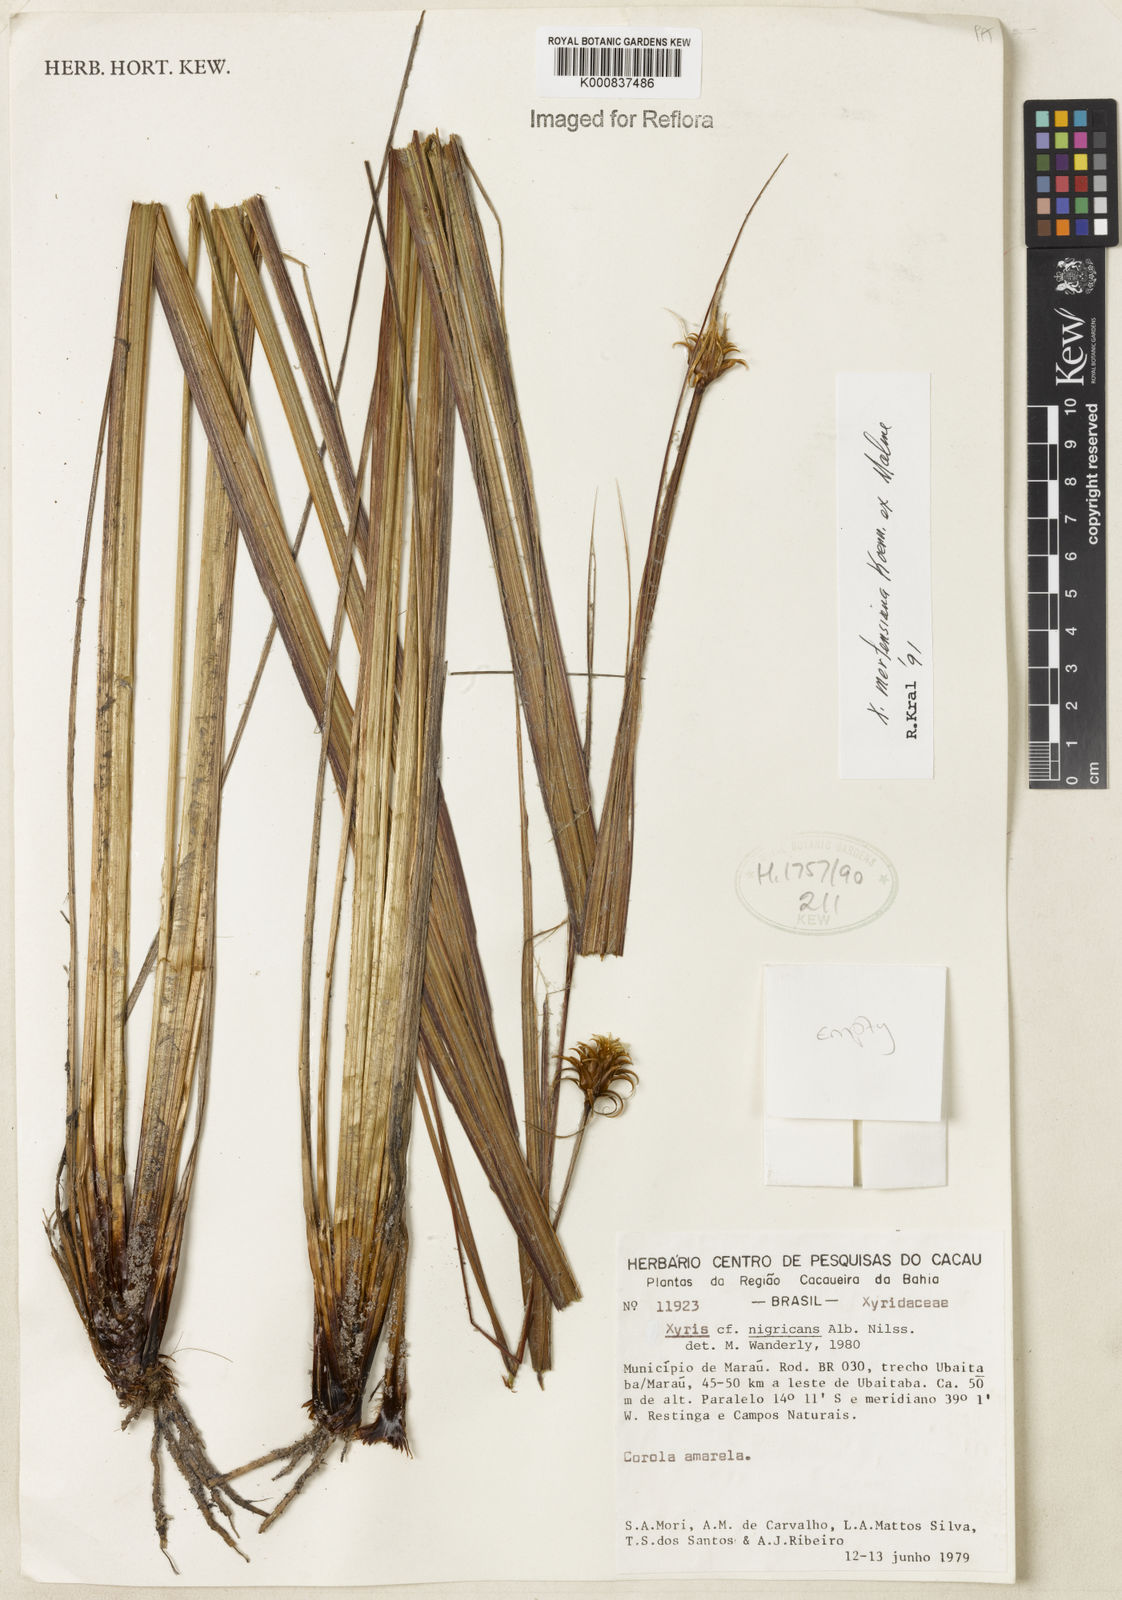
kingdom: Plantae
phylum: Tracheophyta
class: Liliopsida
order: Poales
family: Xyridaceae
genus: Xyris
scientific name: Xyris
